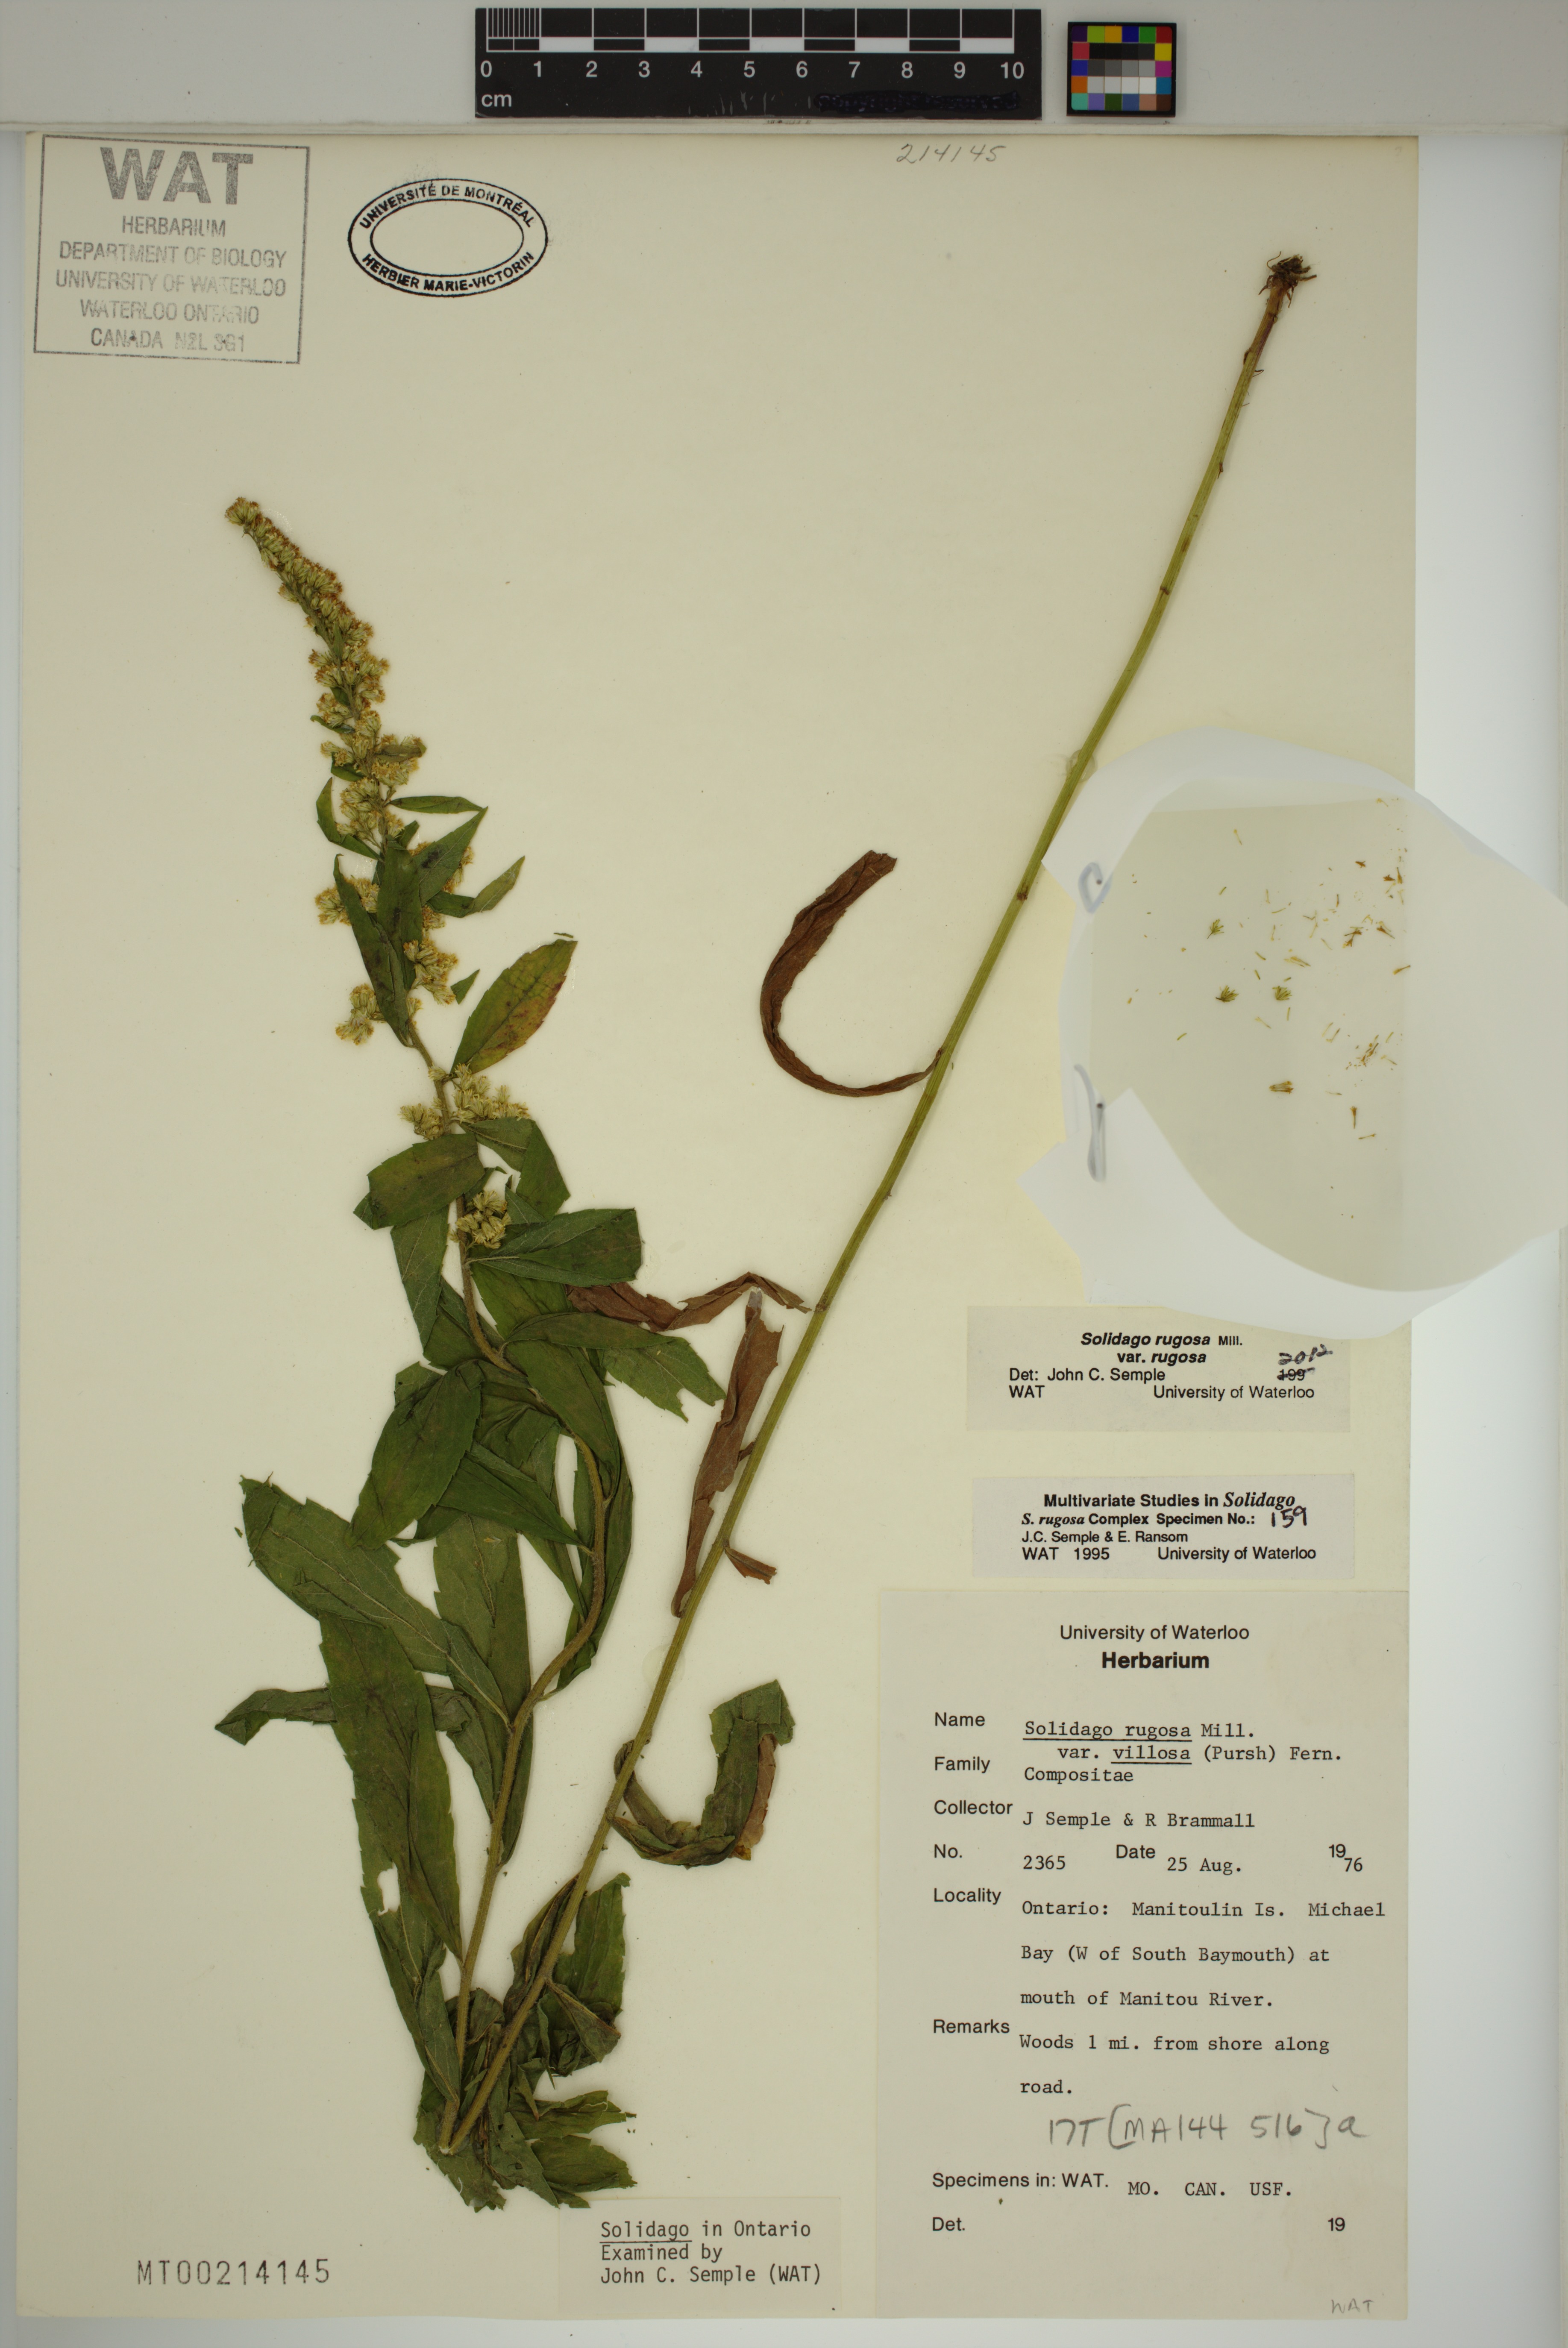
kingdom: Plantae
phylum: Tracheophyta
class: Magnoliopsida
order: Asterales
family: Asteraceae
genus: Solidago
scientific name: Solidago rugosa
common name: Rough-stemmed goldenrod
